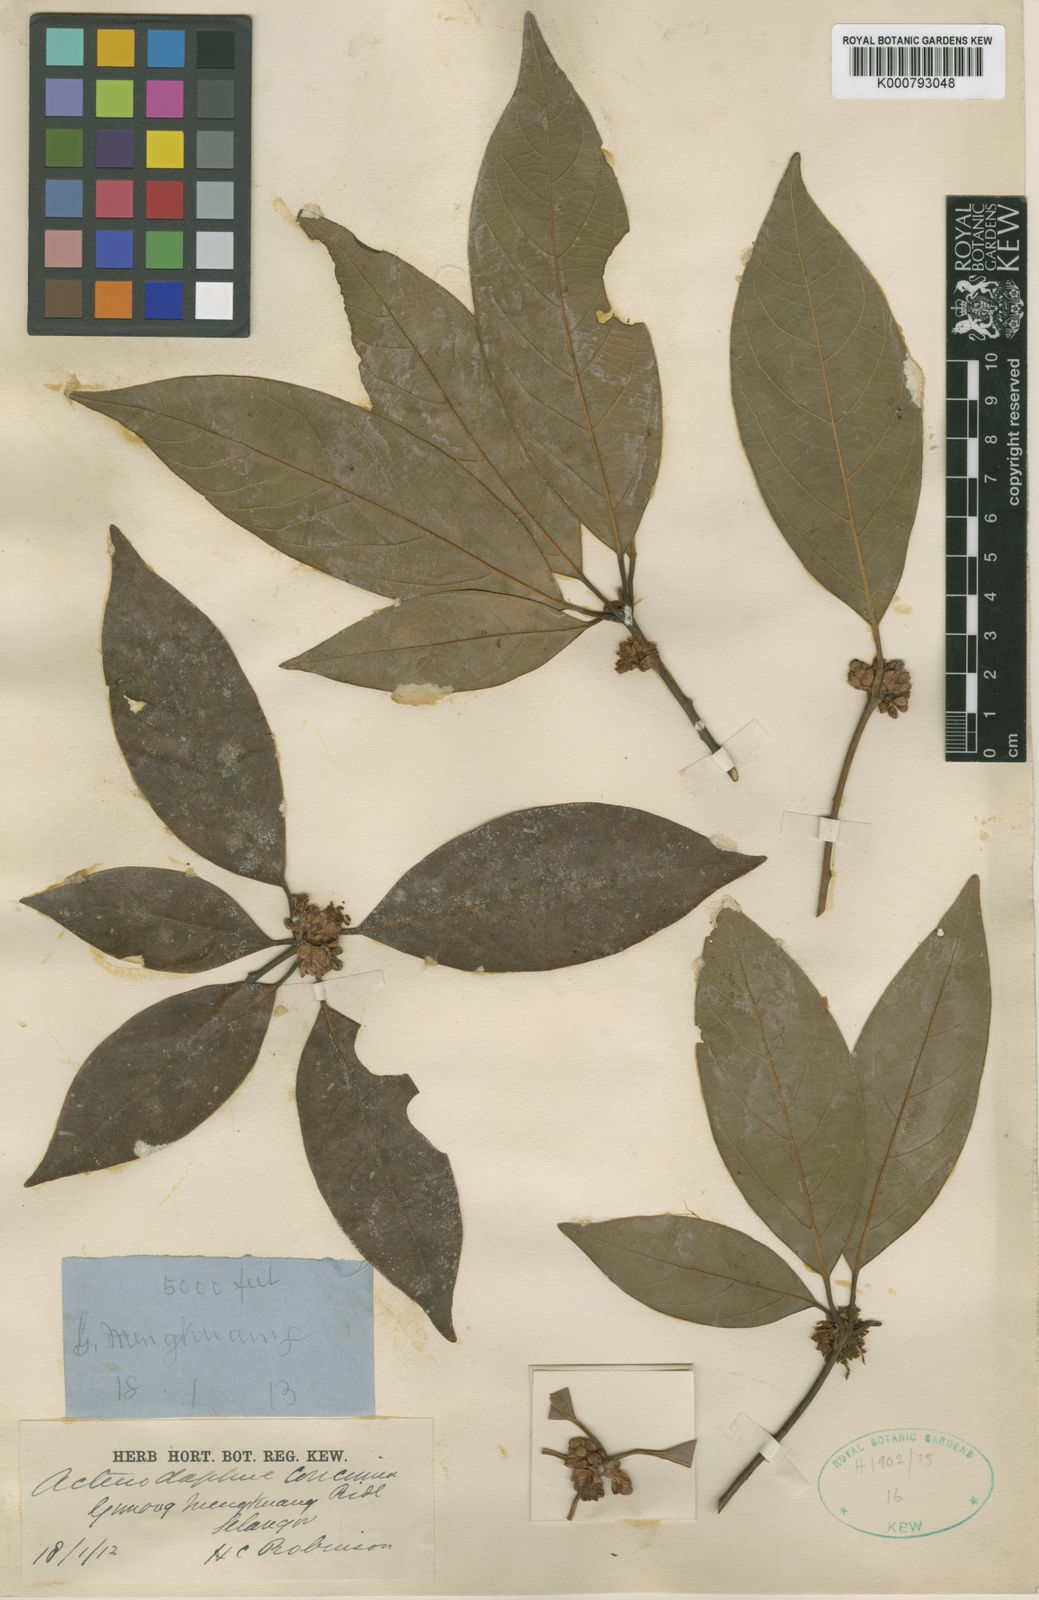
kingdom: Plantae
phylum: Tracheophyta
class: Magnoliopsida
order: Laurales
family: Lauraceae
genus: Actinodaphne
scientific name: Actinodaphne concinna
